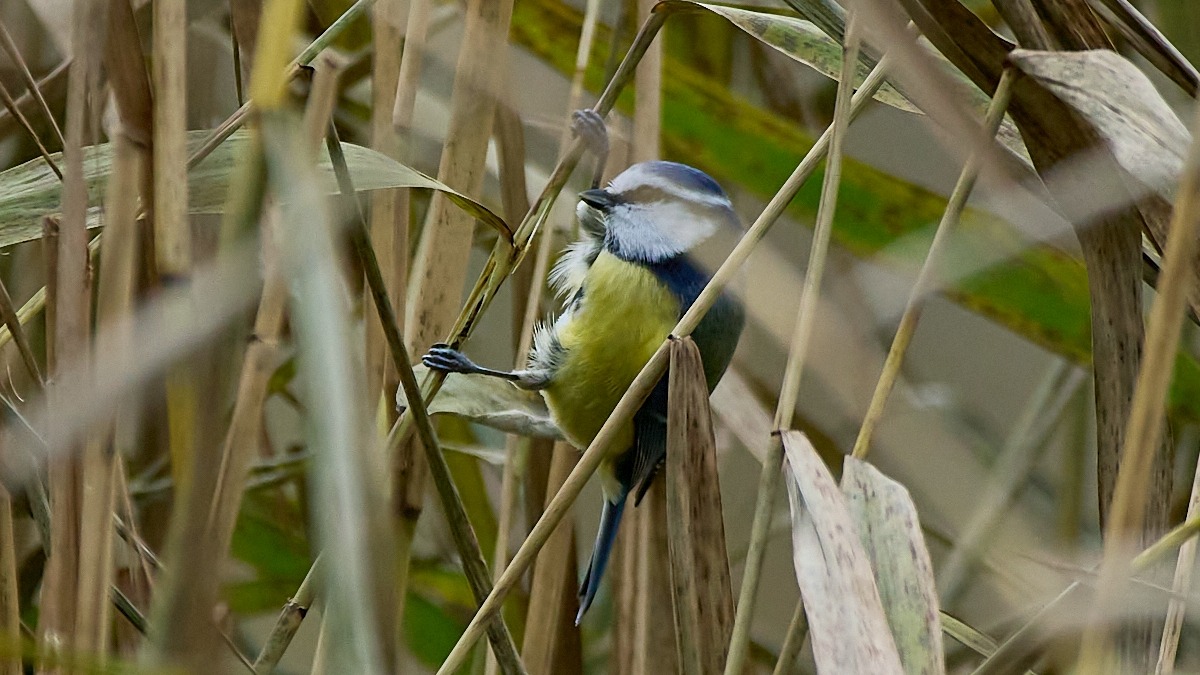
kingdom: Animalia
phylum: Chordata
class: Aves
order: Passeriformes
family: Paridae
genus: Cyanistes
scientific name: Cyanistes caeruleus
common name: Blåmejse
